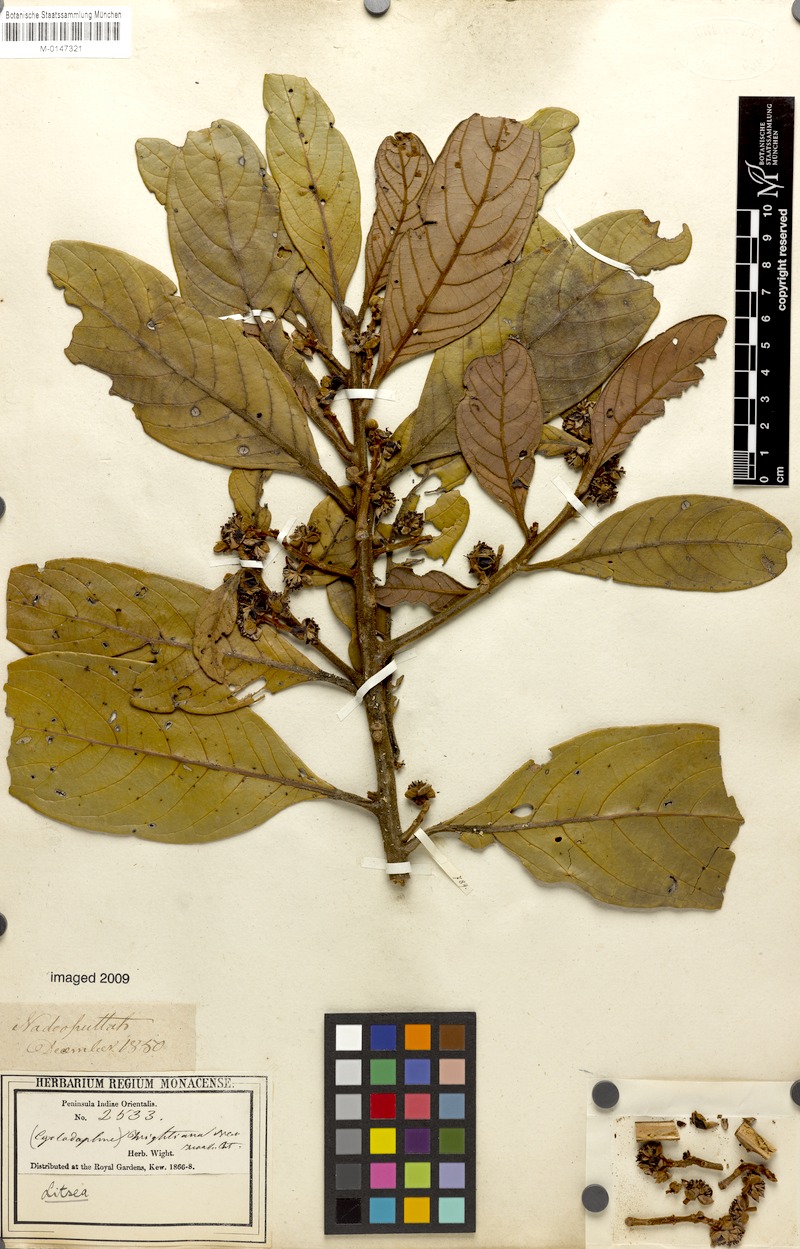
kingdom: Plantae
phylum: Tracheophyta
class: Magnoliopsida
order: Laurales
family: Lauraceae
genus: Litsea
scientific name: Litsea wightiana
